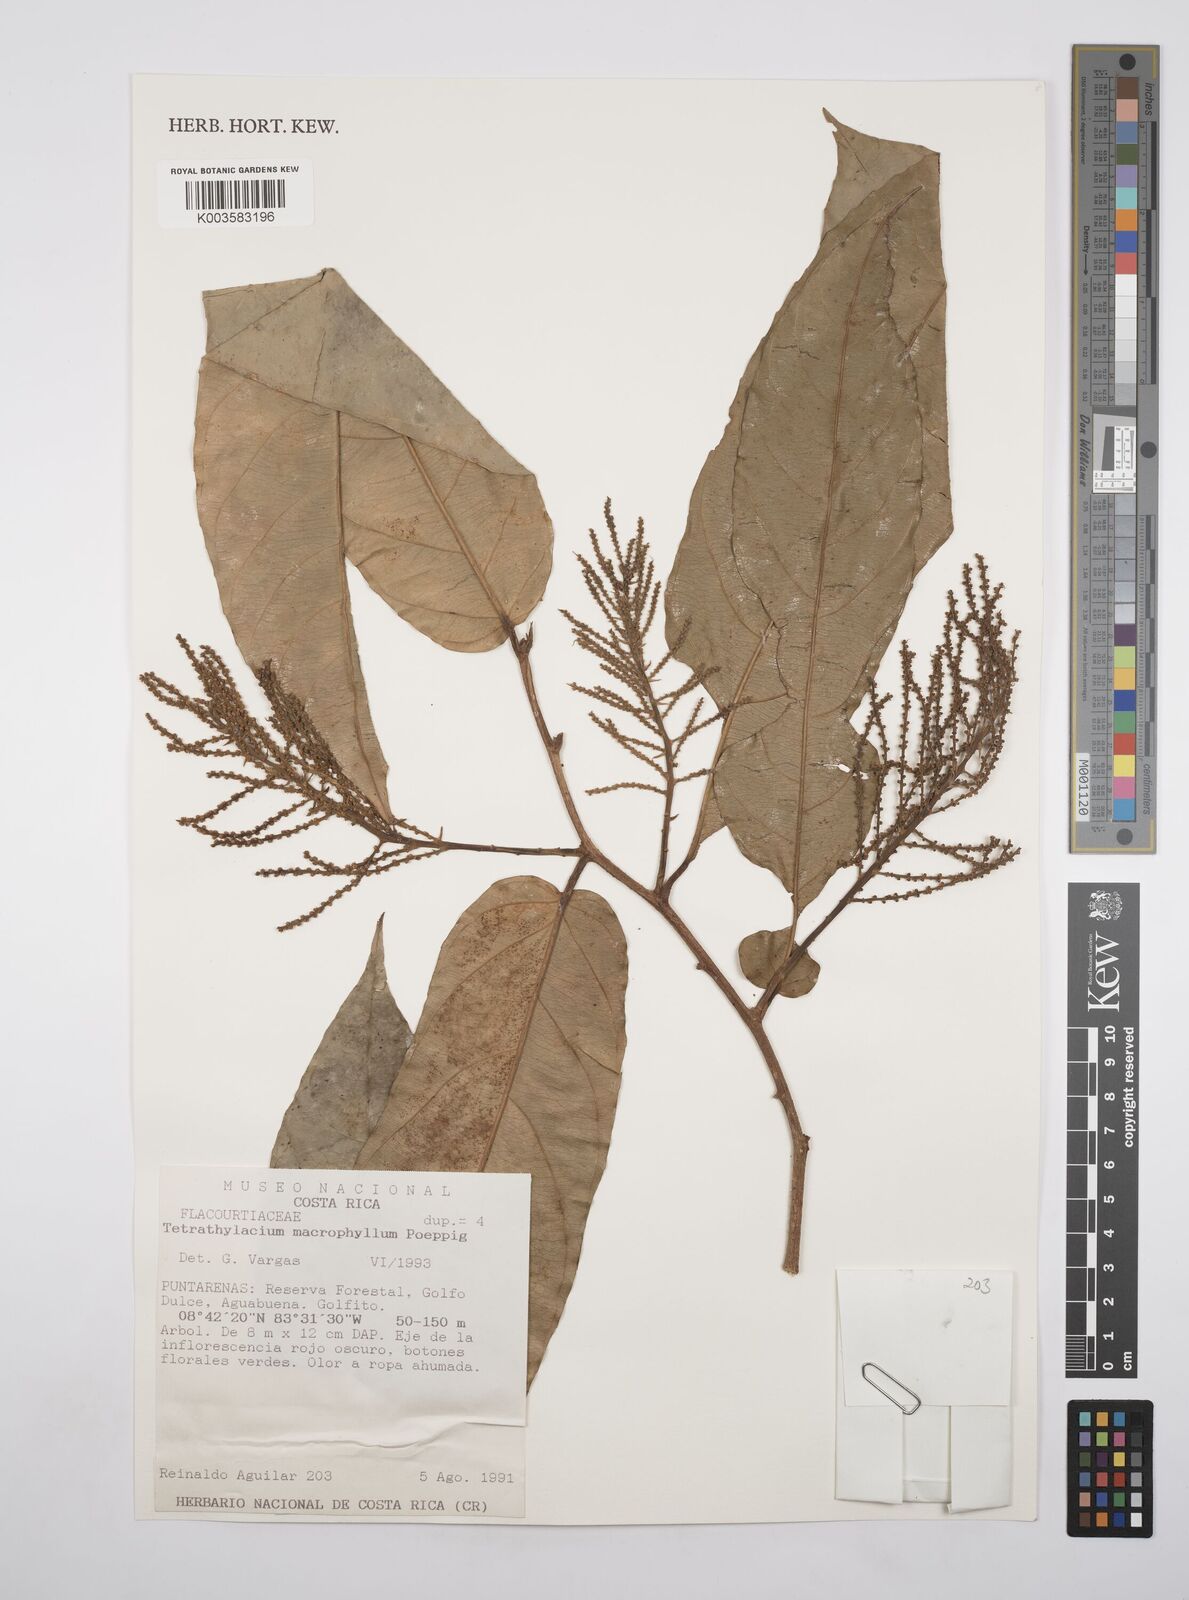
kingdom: Plantae
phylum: Tracheophyta
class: Magnoliopsida
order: Malpighiales
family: Salicaceae
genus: Tetrathylacium
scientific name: Tetrathylacium macrophyllum
